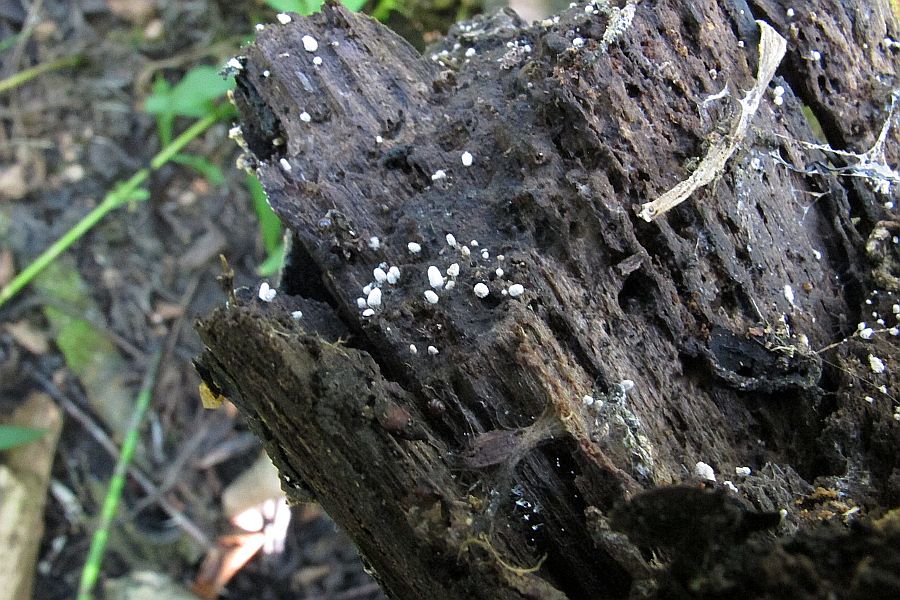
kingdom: Protozoa
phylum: Mycetozoa
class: Myxomycetes
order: Trichiales
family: Arcyriaceae
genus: Arcyria
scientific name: Arcyria cinerea
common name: White carnival candy slime mold
